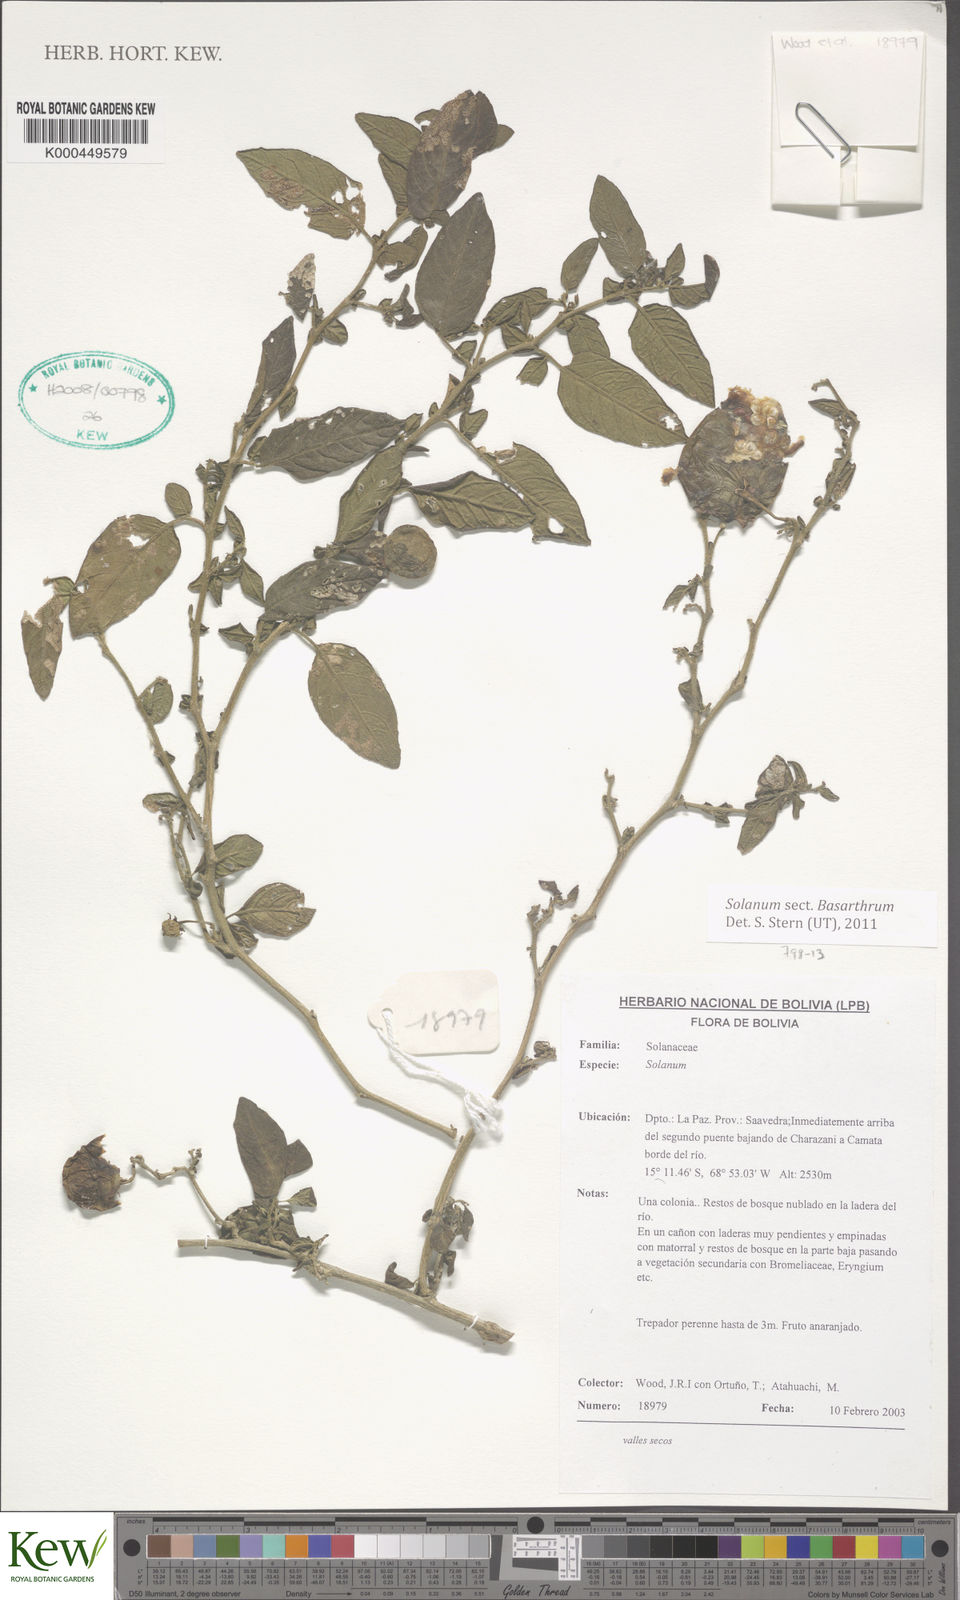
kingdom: Plantae
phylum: Tracheophyta
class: Magnoliopsida
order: Solanales
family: Solanaceae
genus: Solanum
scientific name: Solanum
